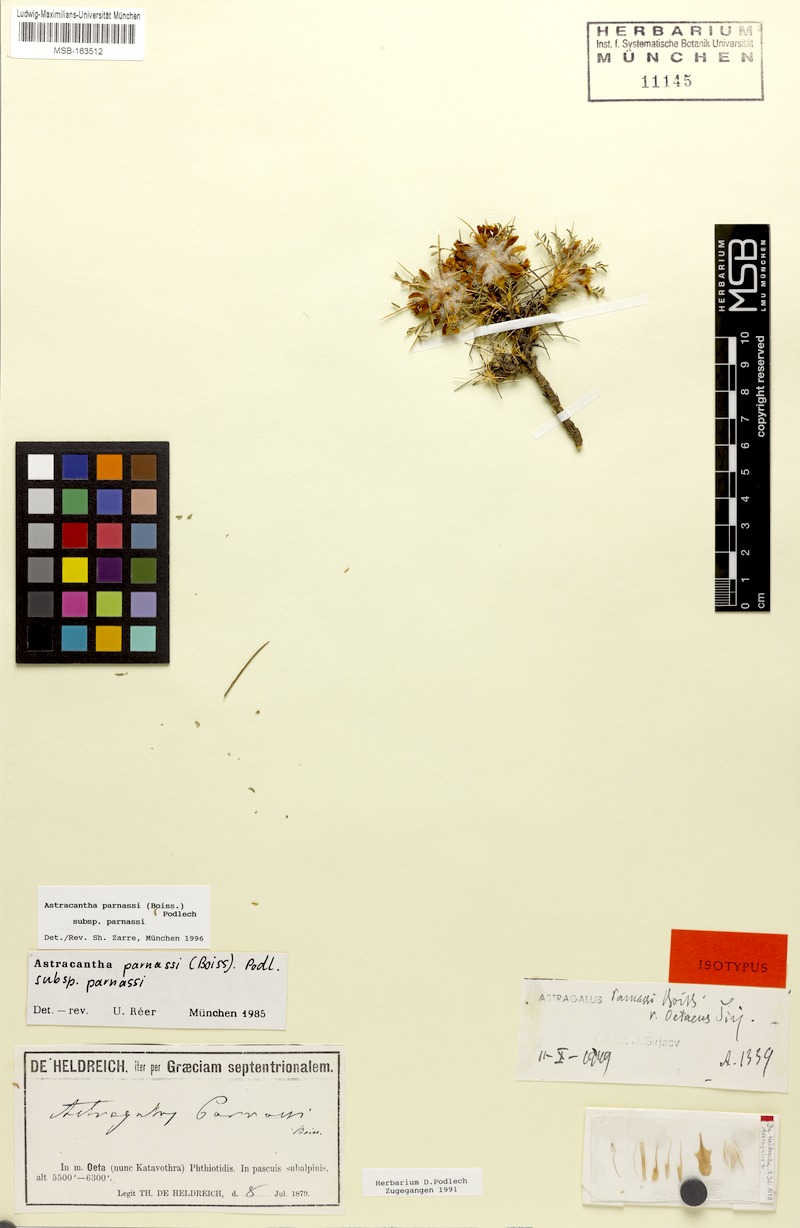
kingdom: Plantae
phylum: Tracheophyta
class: Magnoliopsida
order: Fabales
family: Fabaceae
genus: Astragalus
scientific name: Astragalus parnassi
